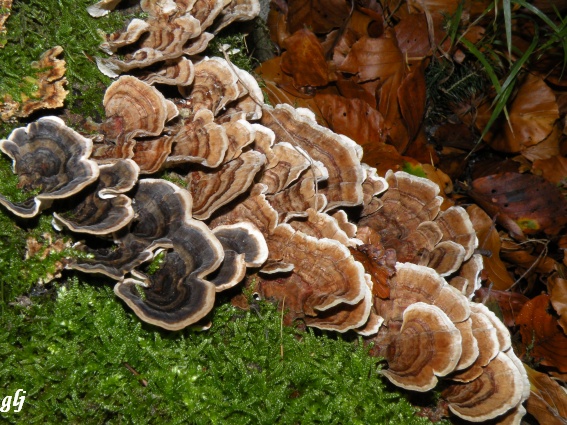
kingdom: Fungi
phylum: Basidiomycota
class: Agaricomycetes
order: Polyporales
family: Polyporaceae
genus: Trametes
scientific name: Trametes versicolor
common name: broget læderporesvamp
